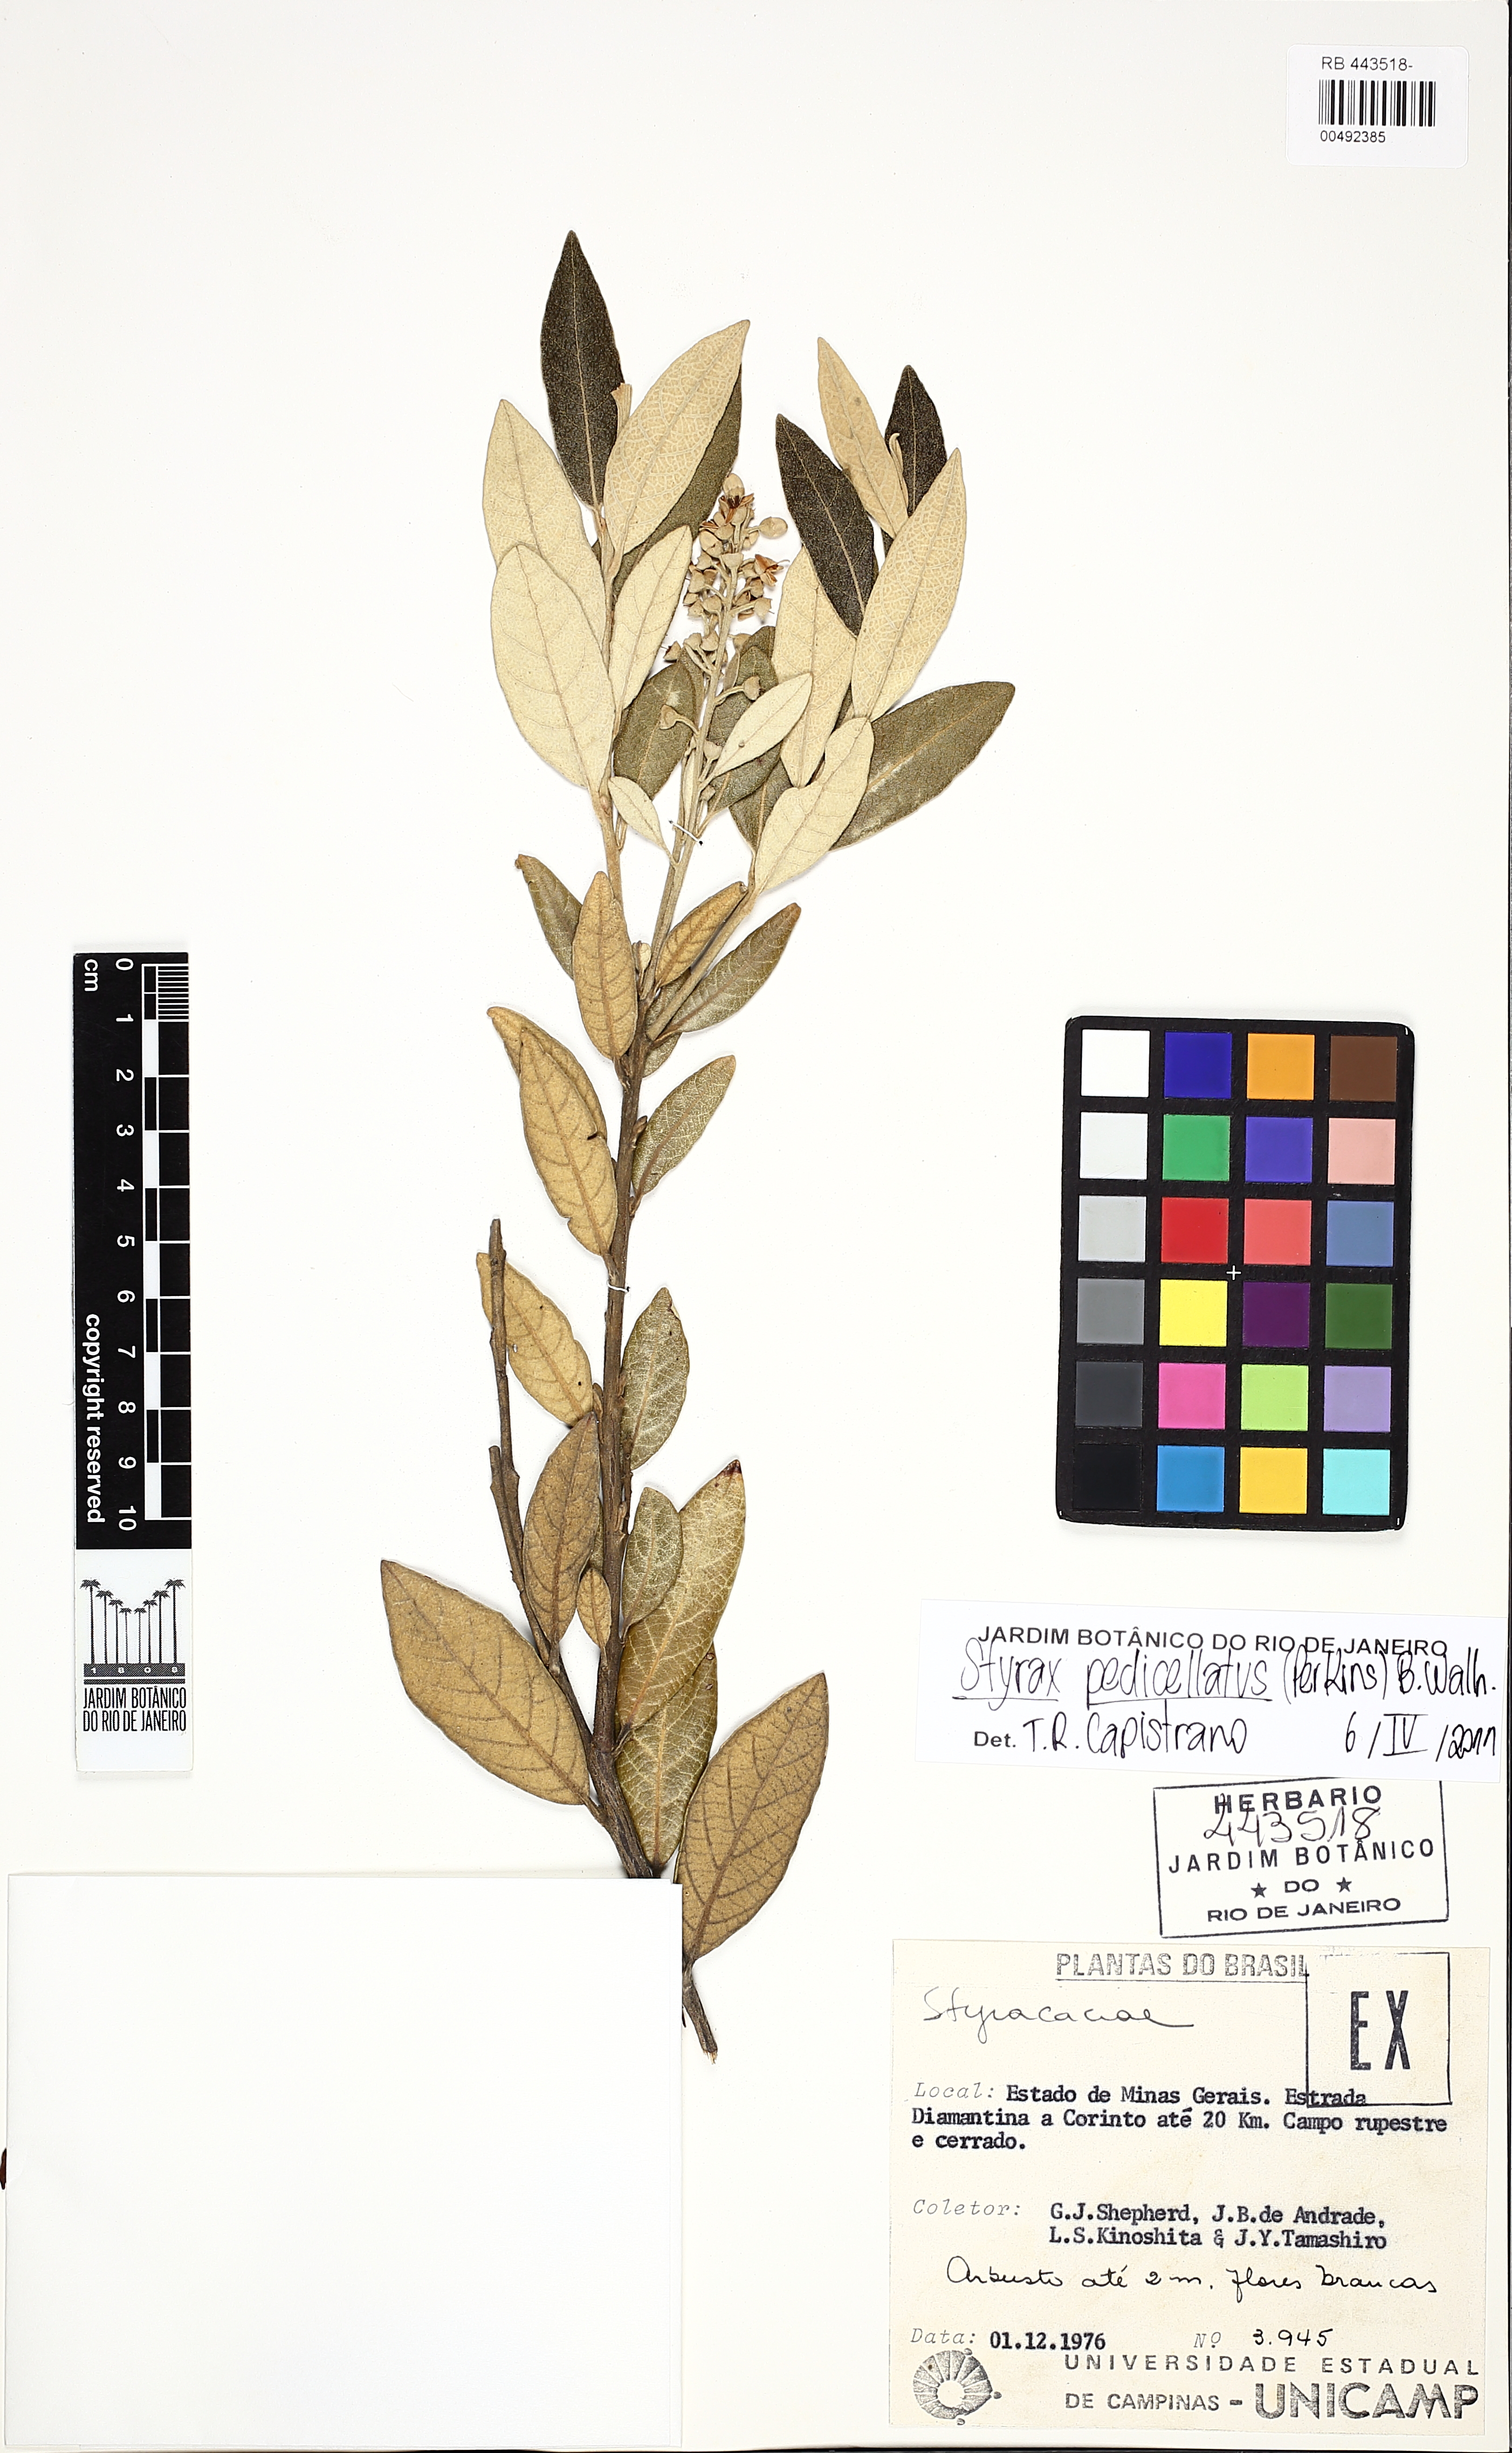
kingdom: Plantae
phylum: Tracheophyta
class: Magnoliopsida
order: Ericales
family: Styracaceae
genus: Styrax
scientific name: Styrax pedicellatus
